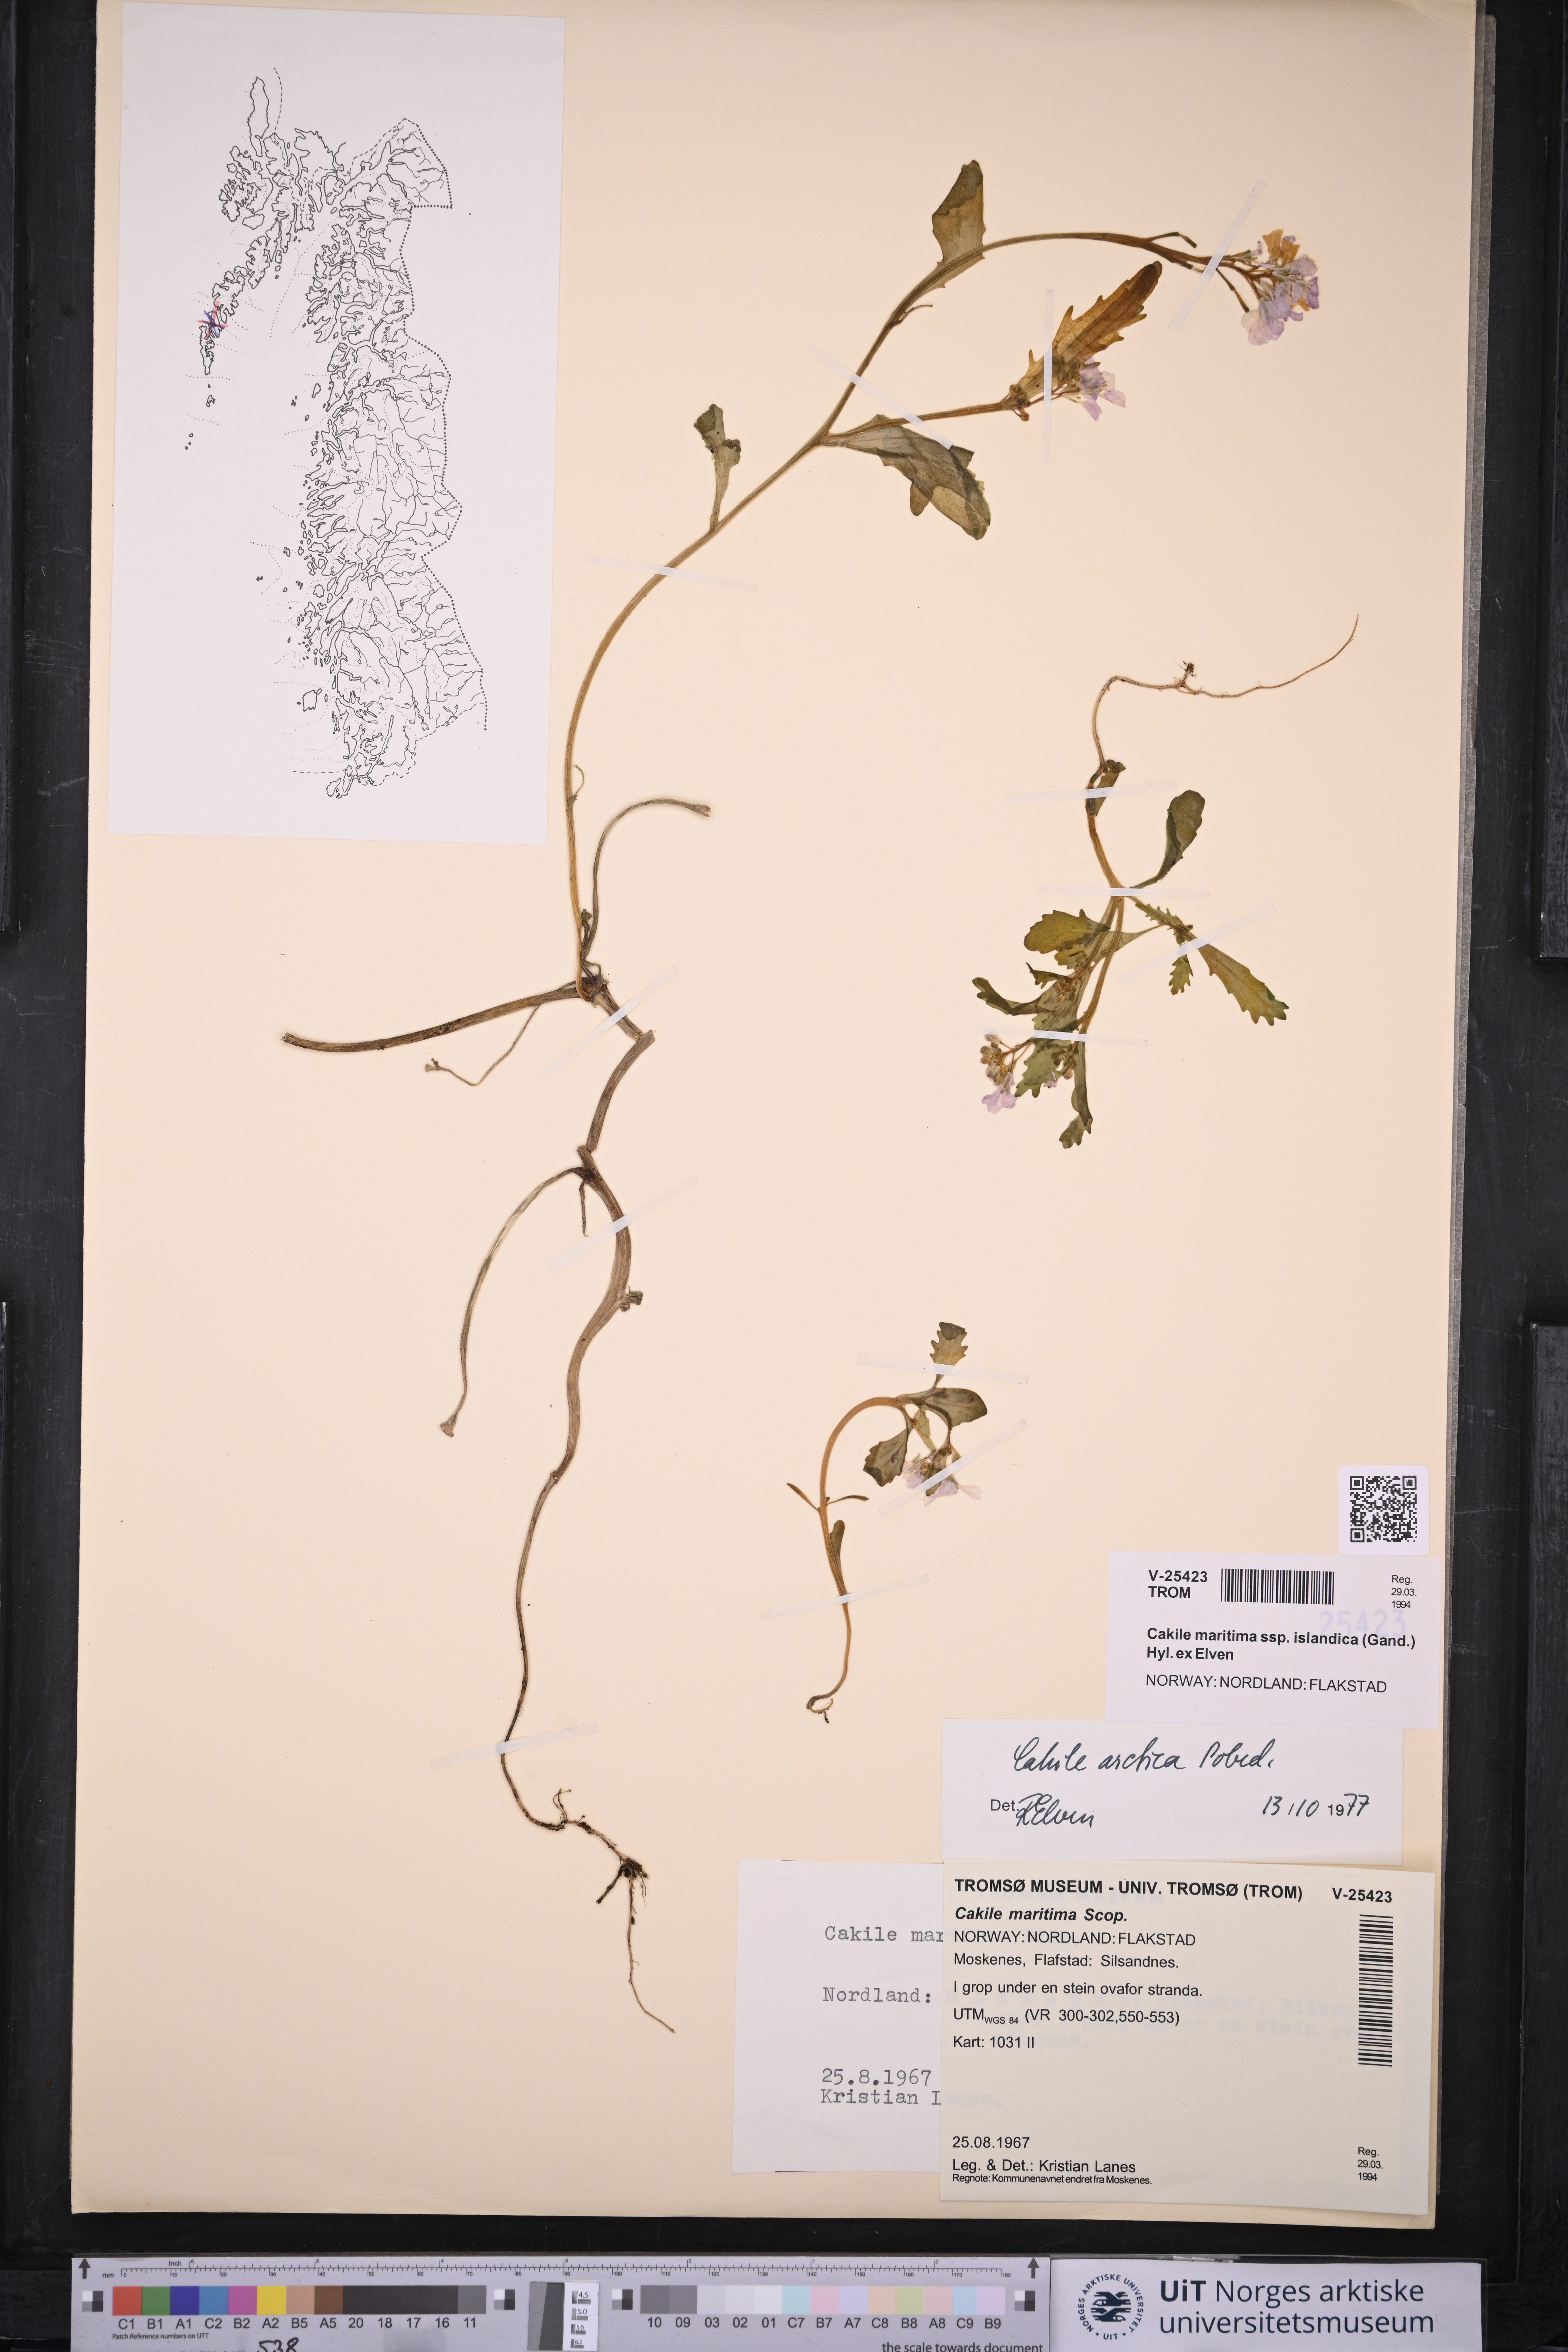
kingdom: Plantae
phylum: Tracheophyta
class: Magnoliopsida
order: Brassicales
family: Brassicaceae
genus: Cakile
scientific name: Cakile arctica
